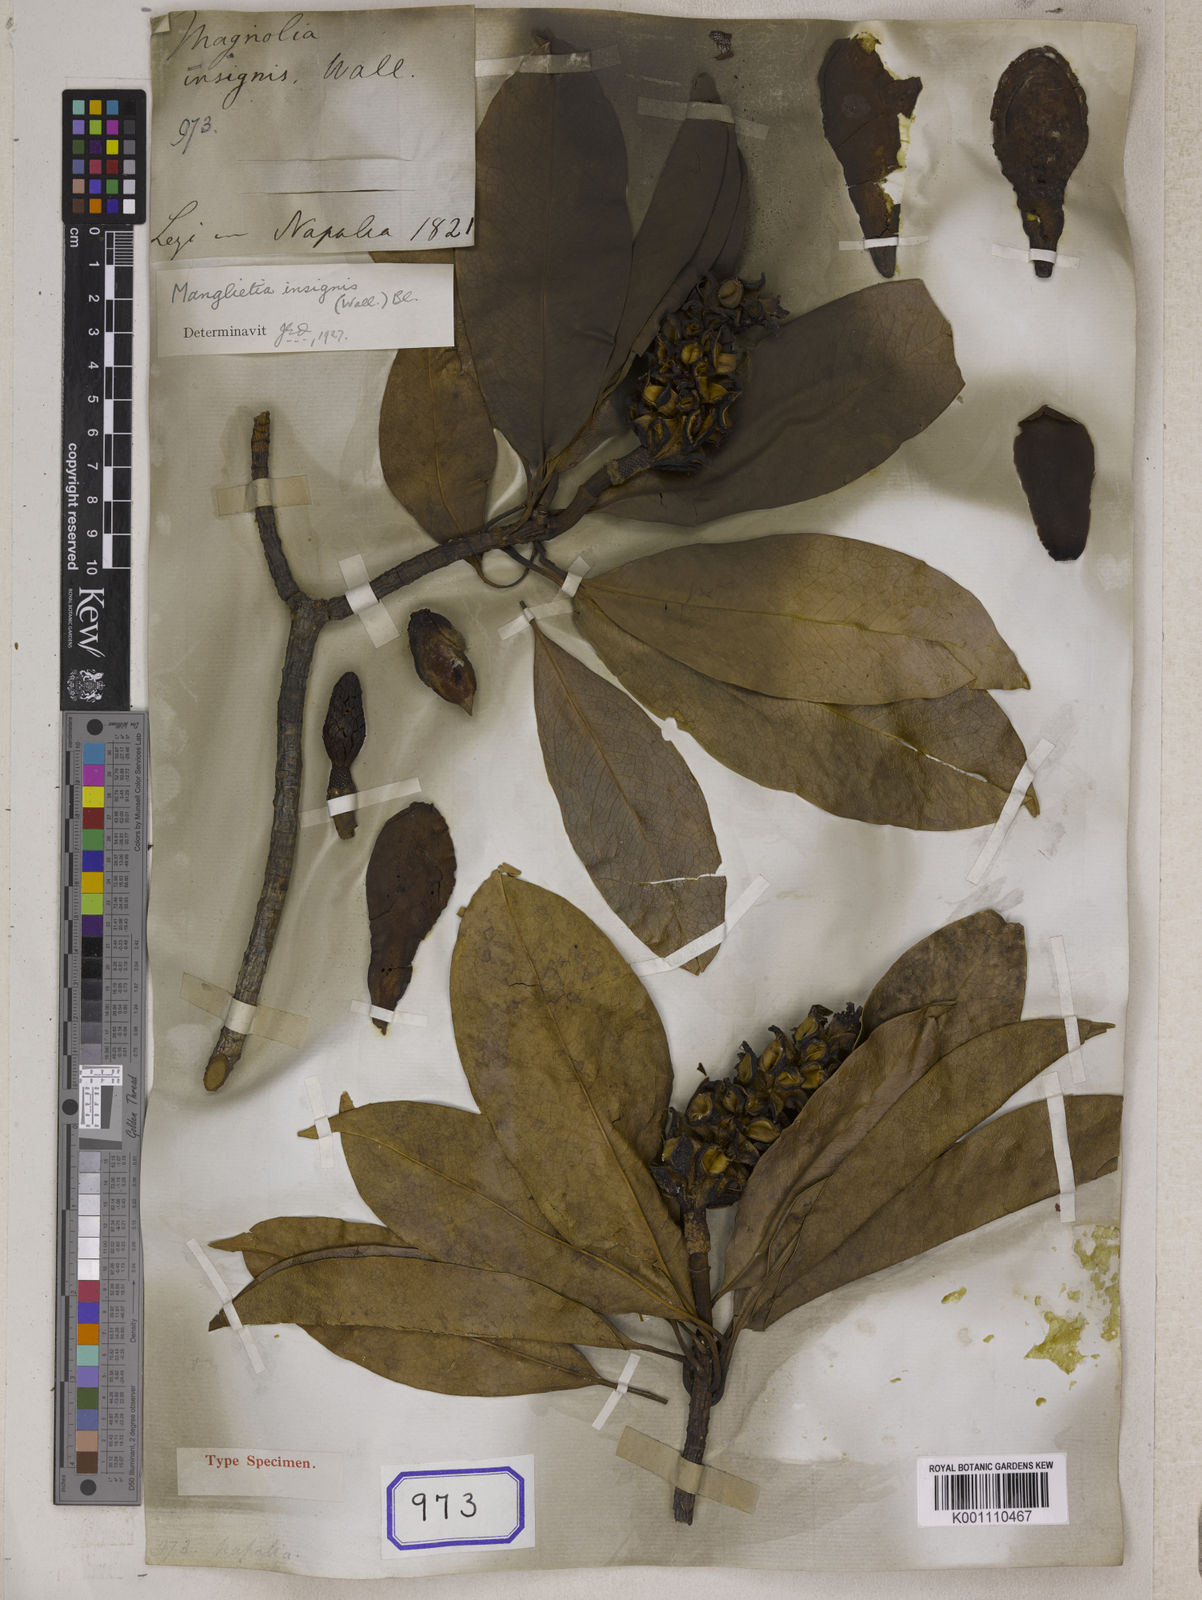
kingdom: Plantae
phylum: Tracheophyta
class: Magnoliopsida
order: Magnoliales
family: Magnoliaceae
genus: Magnolia
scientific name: Magnolia insignis
